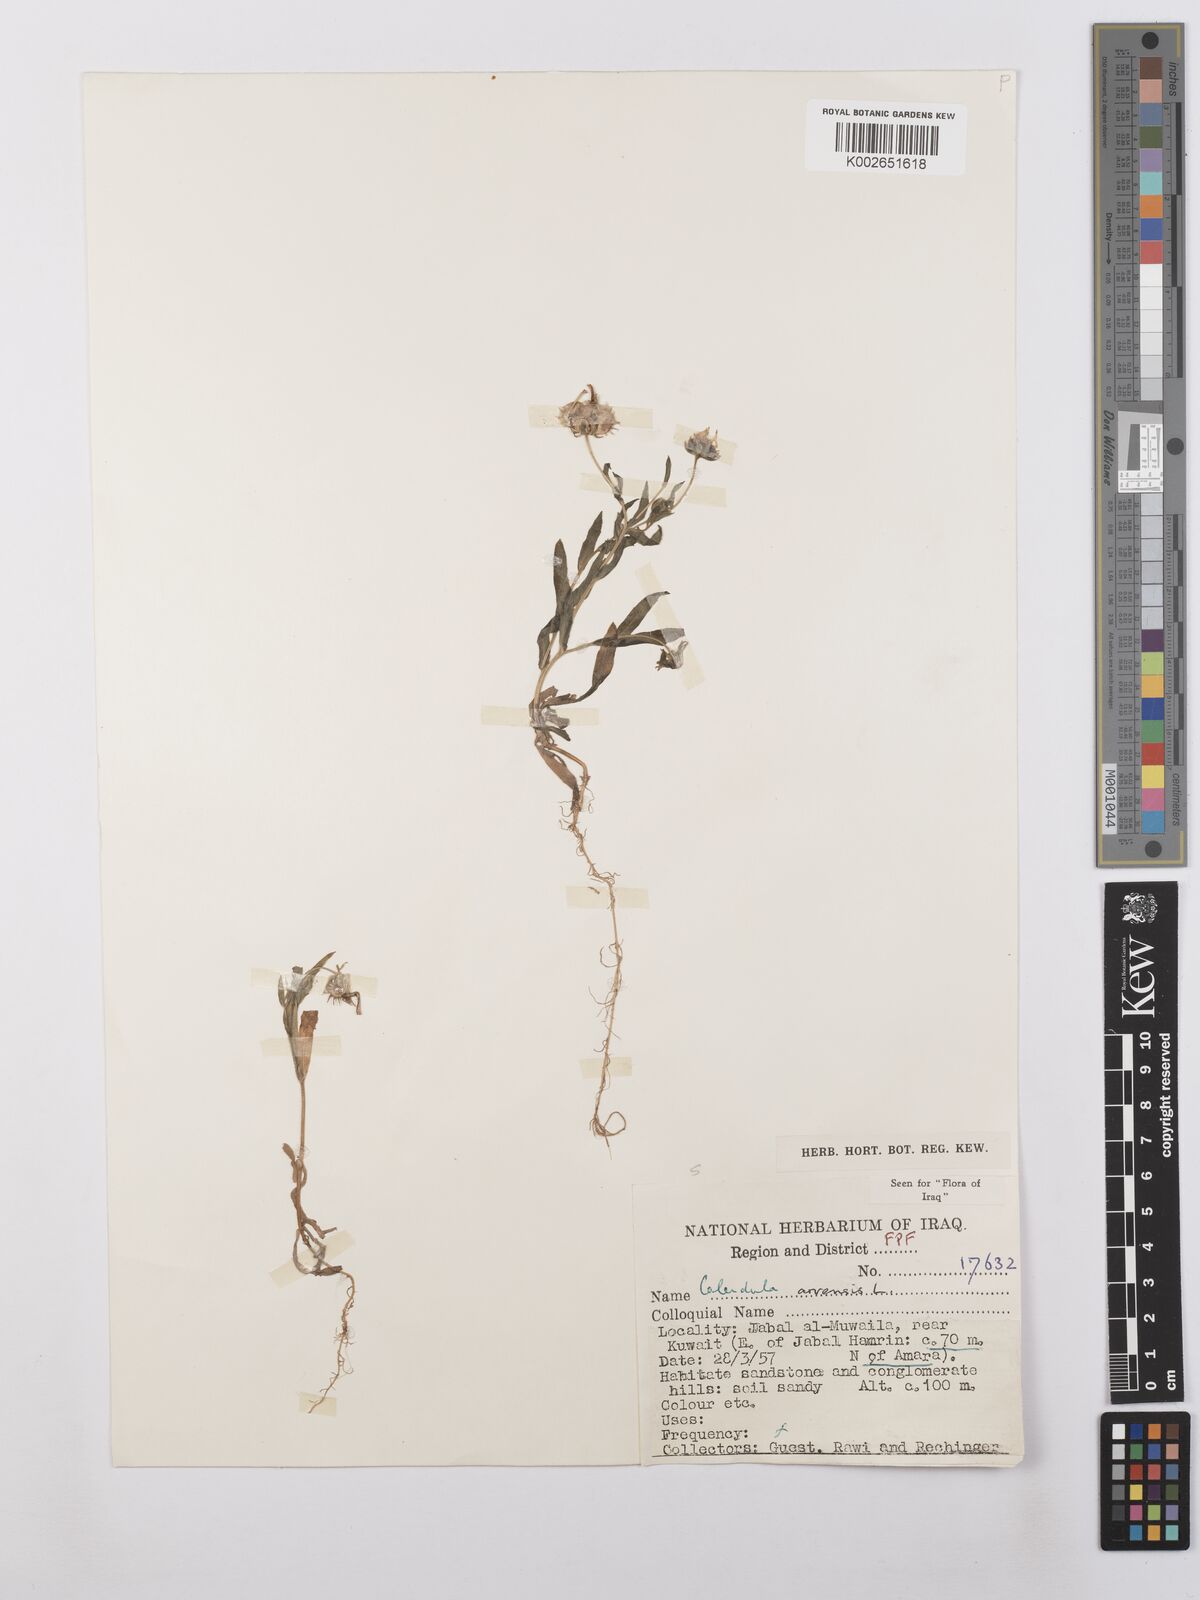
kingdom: Plantae
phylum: Tracheophyta
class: Magnoliopsida
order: Asterales
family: Asteraceae
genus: Calendula
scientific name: Calendula arvensis
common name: Field marigold
